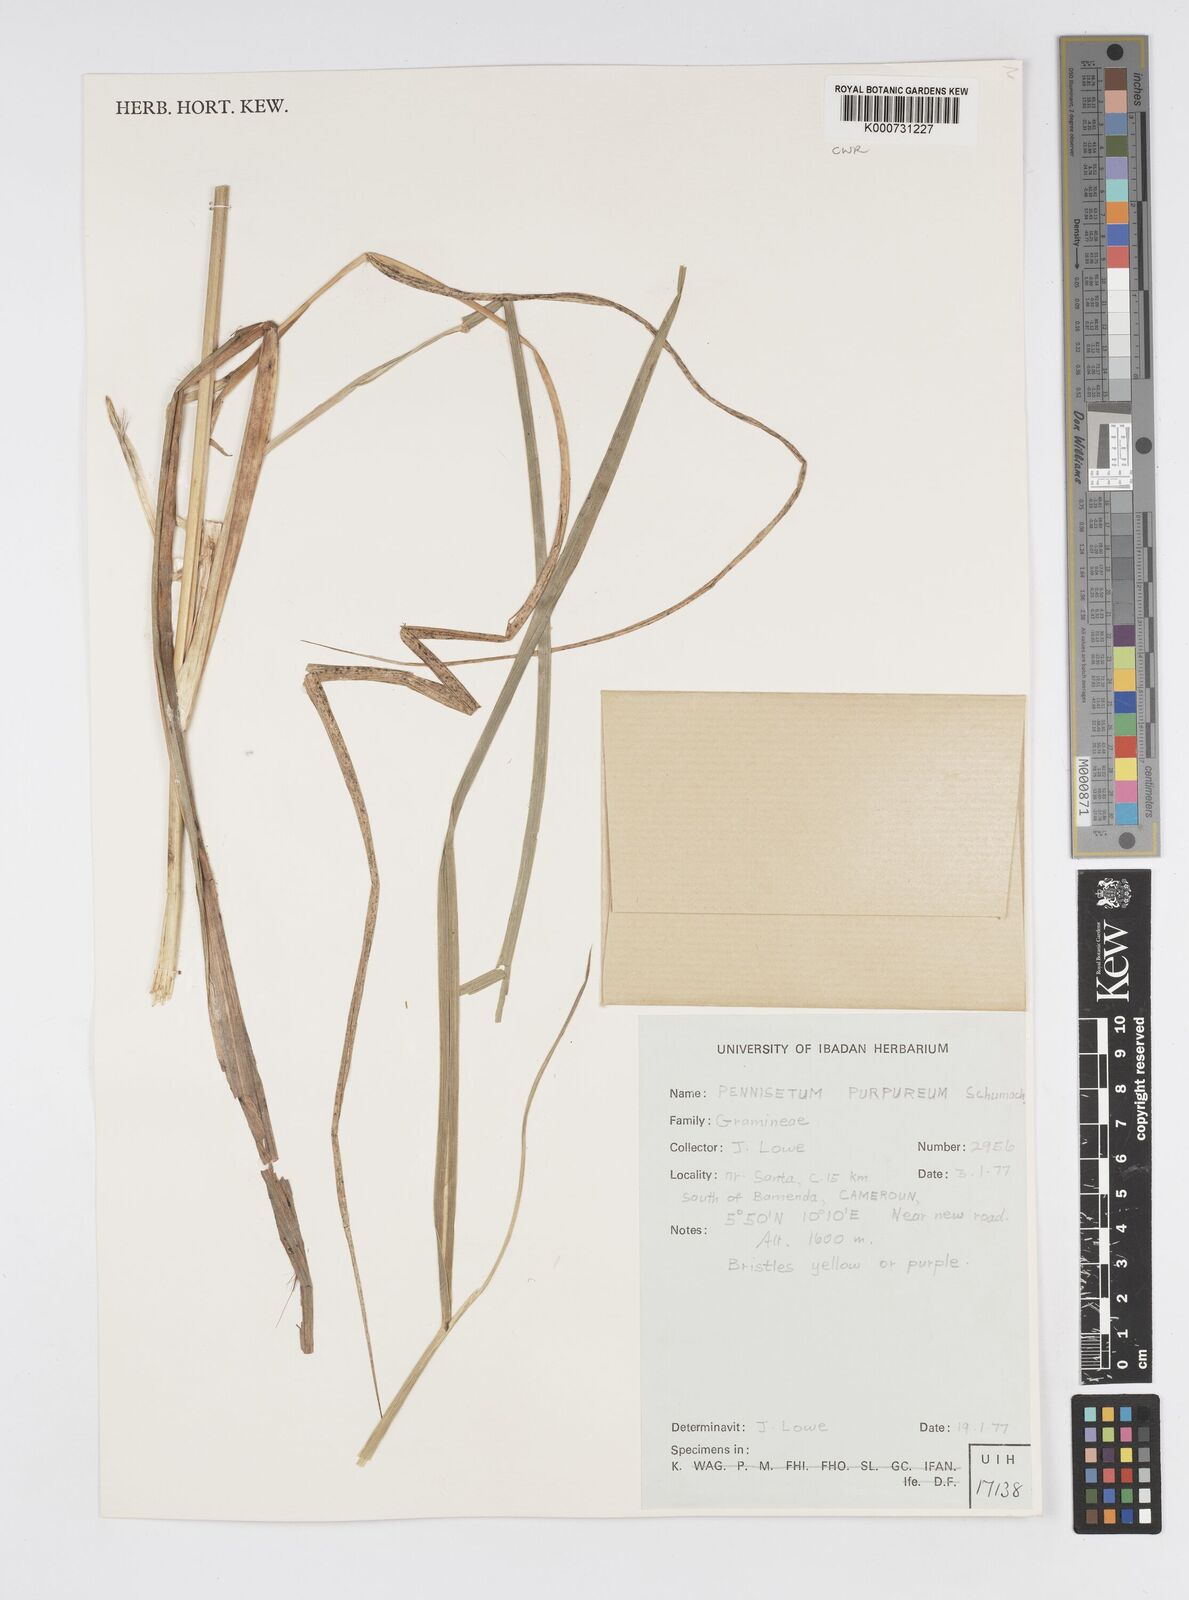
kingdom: Plantae
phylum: Tracheophyta
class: Liliopsida
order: Poales
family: Poaceae
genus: Cenchrus
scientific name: Cenchrus purpureus
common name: Elephant grass
